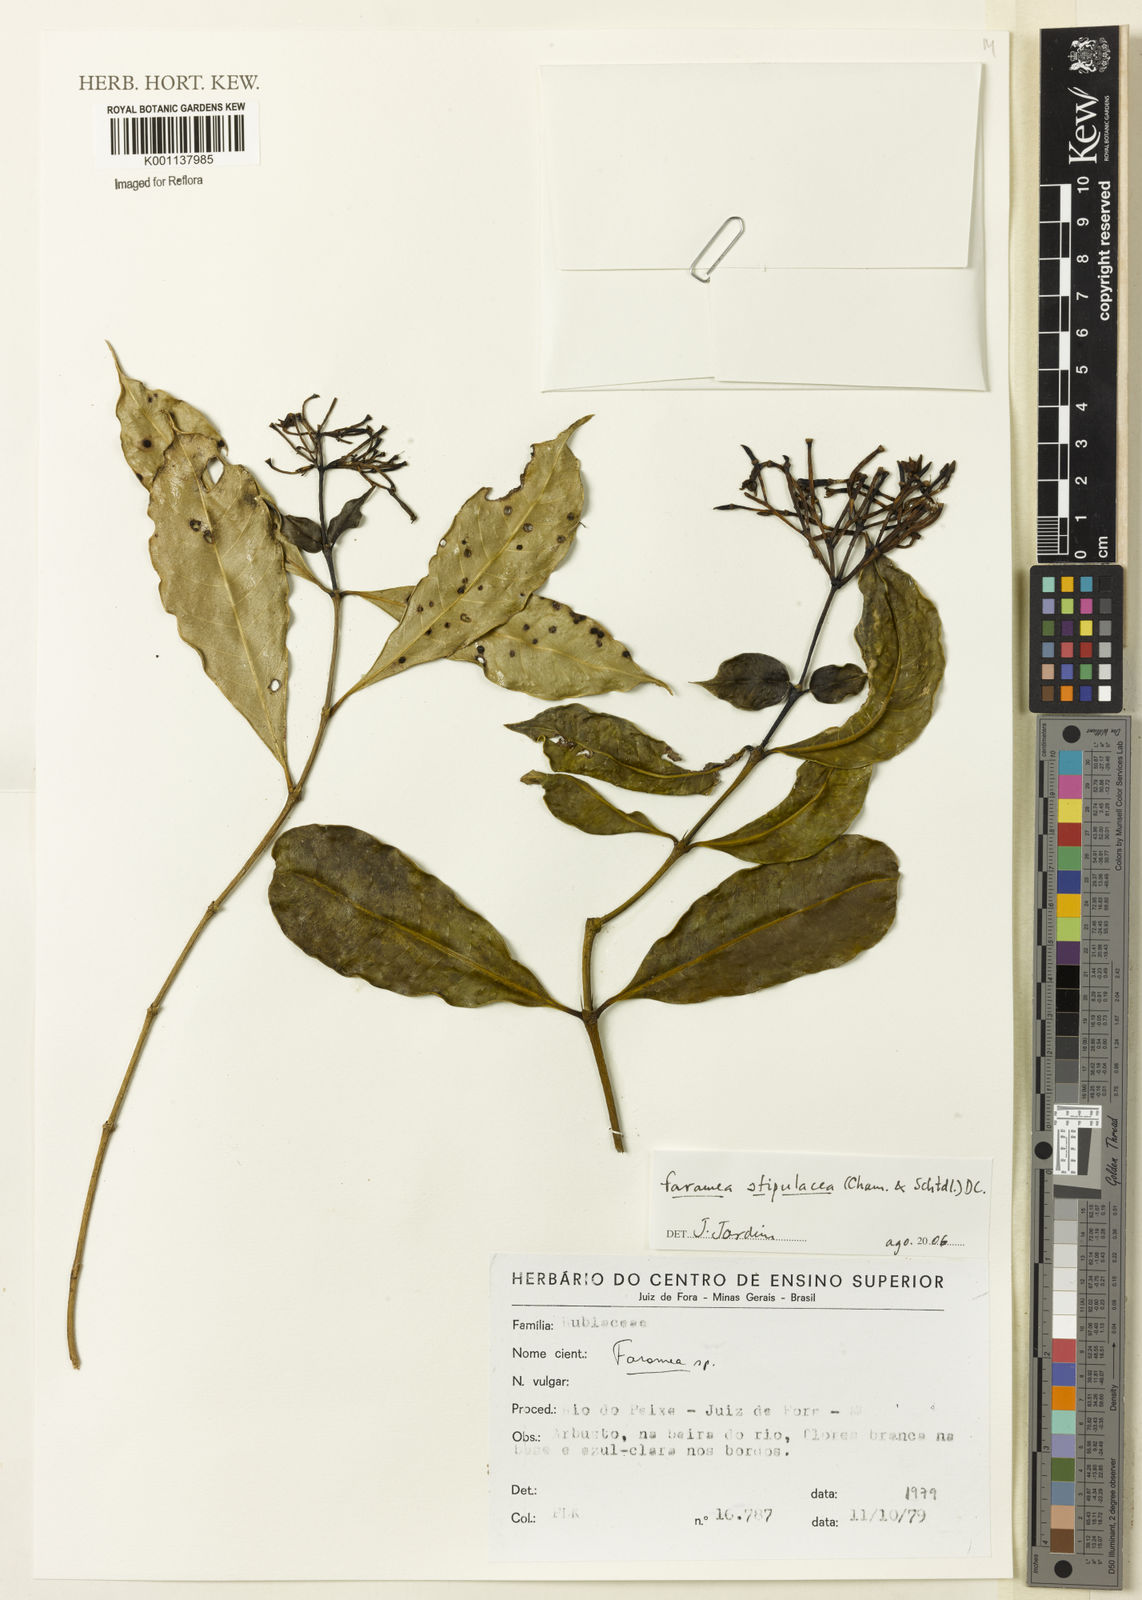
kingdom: Plantae
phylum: Tracheophyta
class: Magnoliopsida
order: Gentianales
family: Rubiaceae
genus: Faramea
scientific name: Faramea stipulacea
